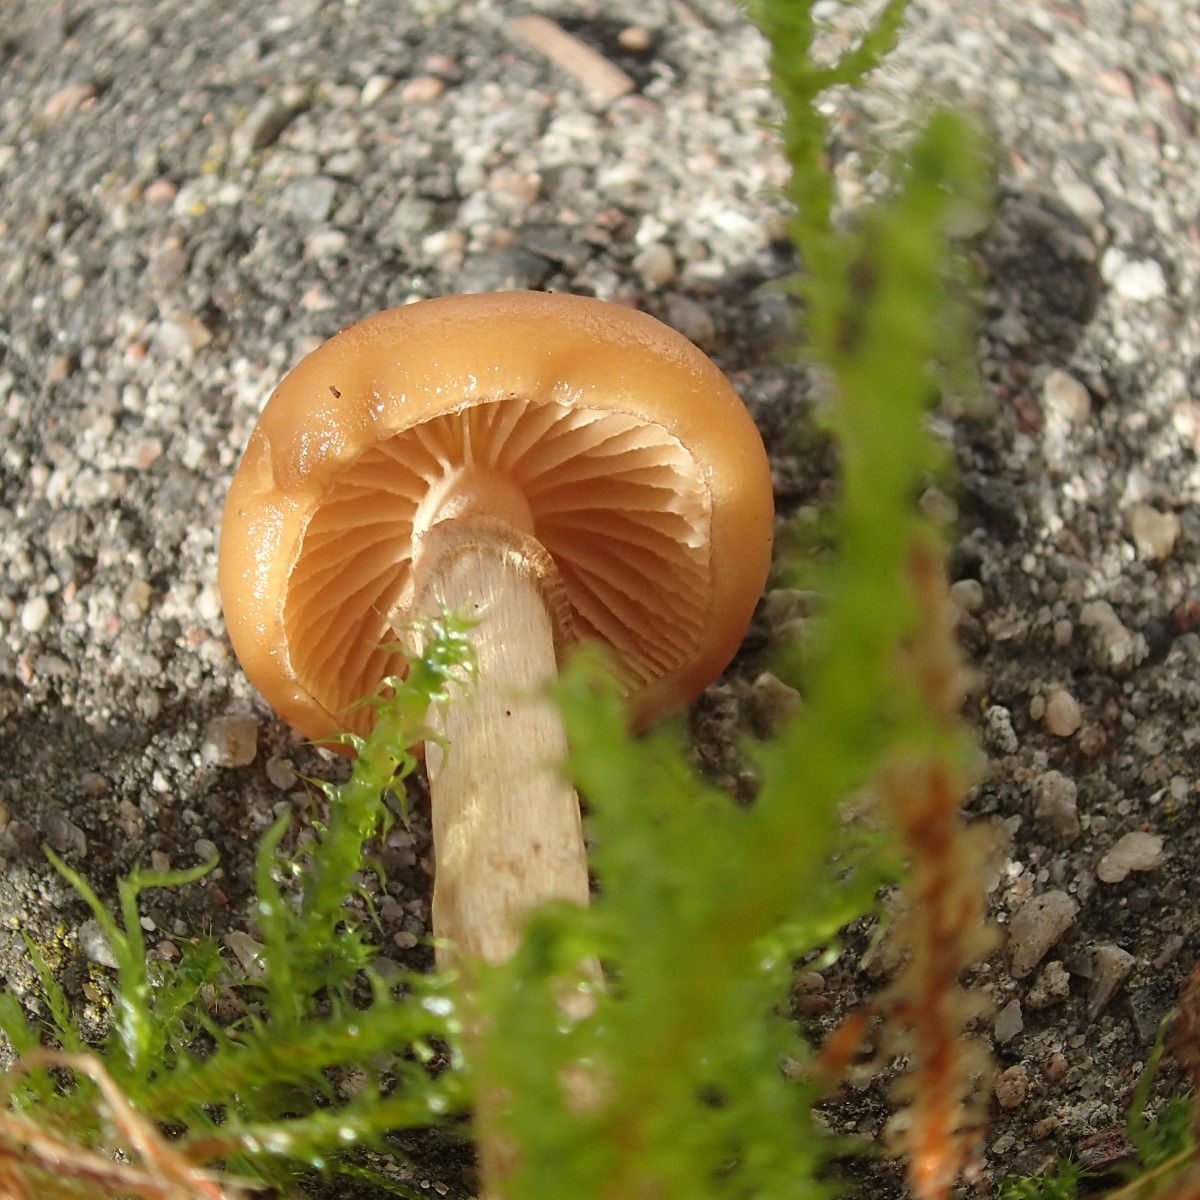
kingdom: Fungi
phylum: Basidiomycota
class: Agaricomycetes
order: Agaricales
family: Hymenogastraceae
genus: Galerina
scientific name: Galerina
